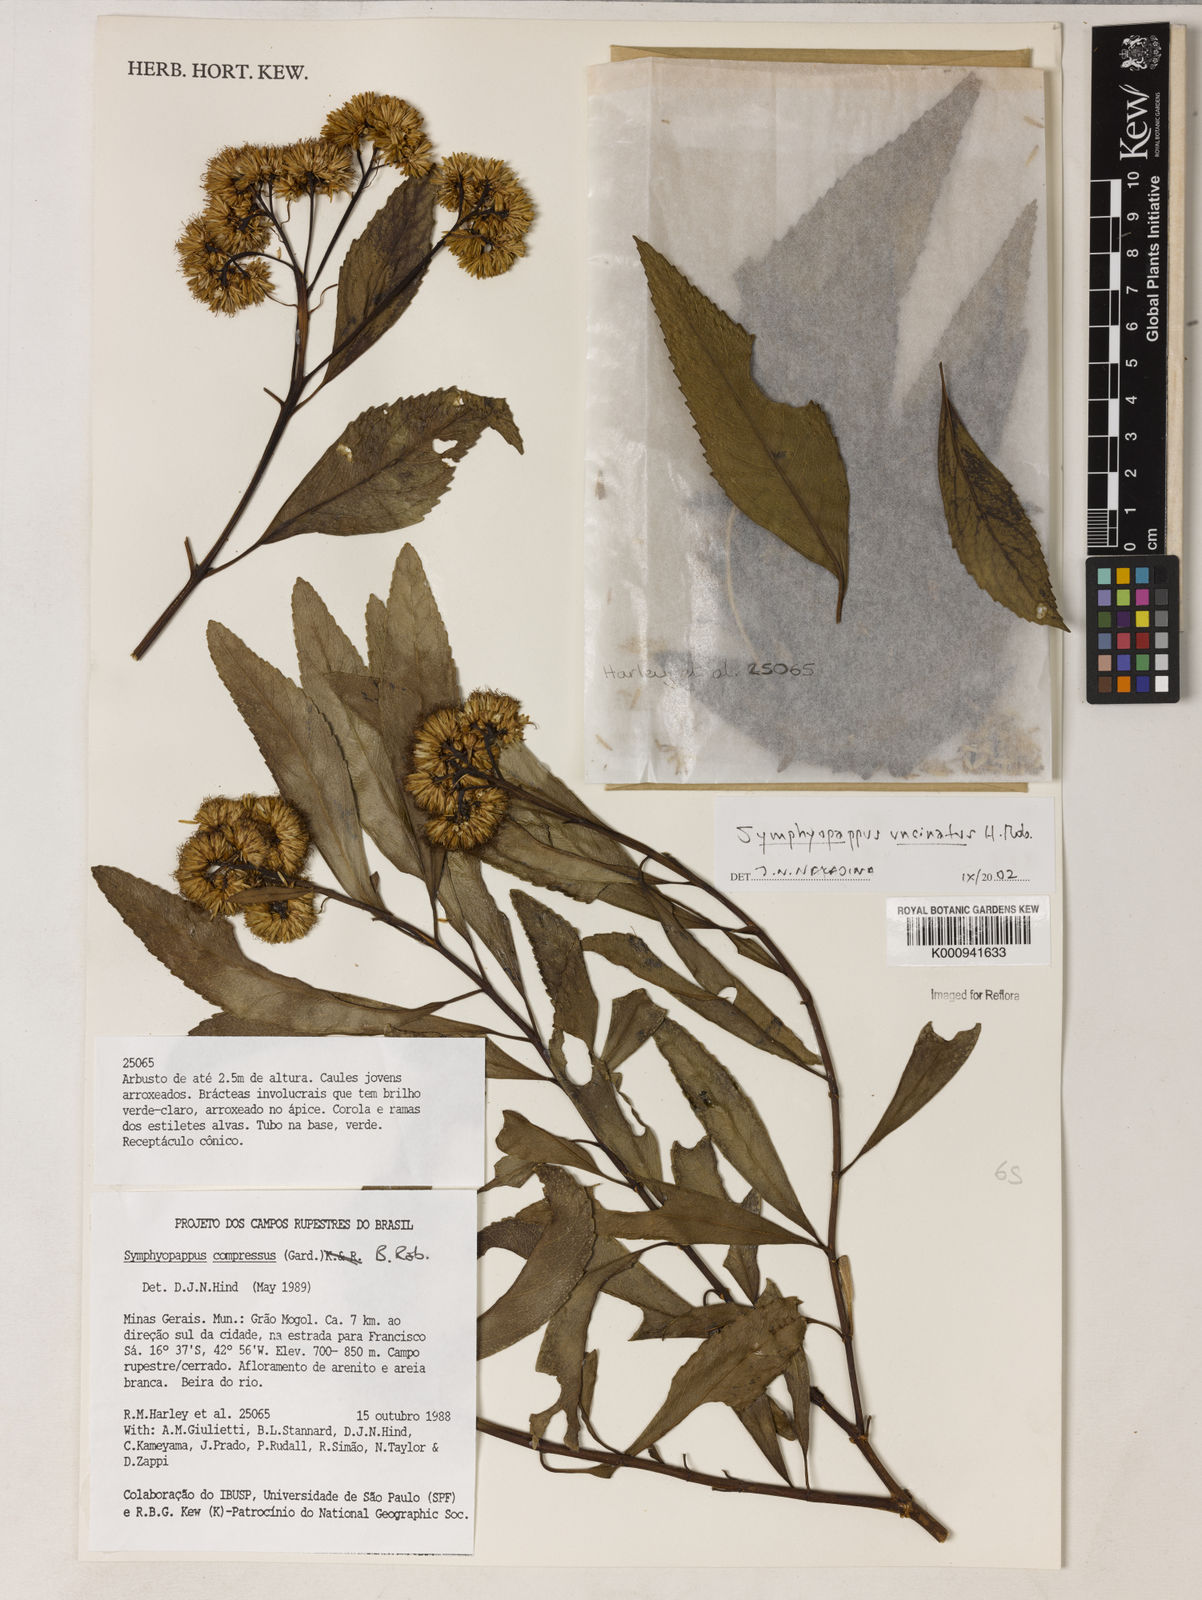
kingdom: Plantae
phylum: Tracheophyta
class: Magnoliopsida
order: Asterales
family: Asteraceae
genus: Symphyopappus
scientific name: Symphyopappus uncinatus
